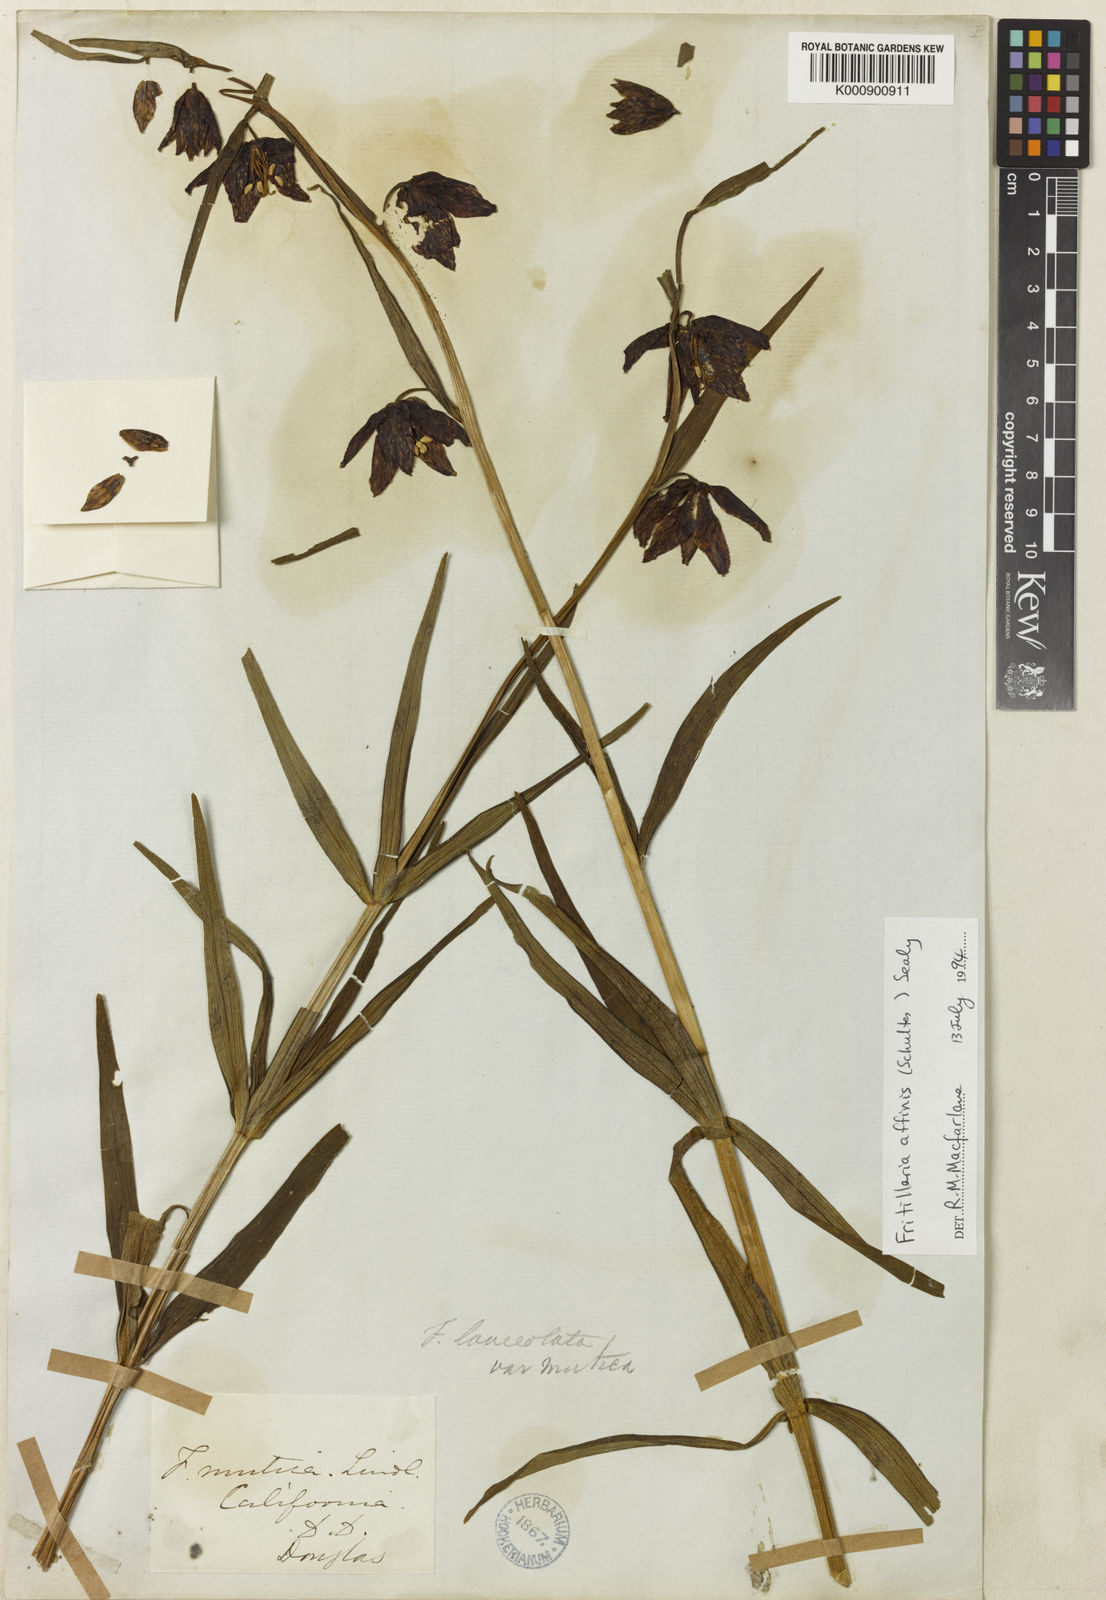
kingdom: Plantae
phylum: Tracheophyta
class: Liliopsida
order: Liliales
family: Liliaceae
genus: Fritillaria
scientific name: Fritillaria affinis
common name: Ojai fritillary
